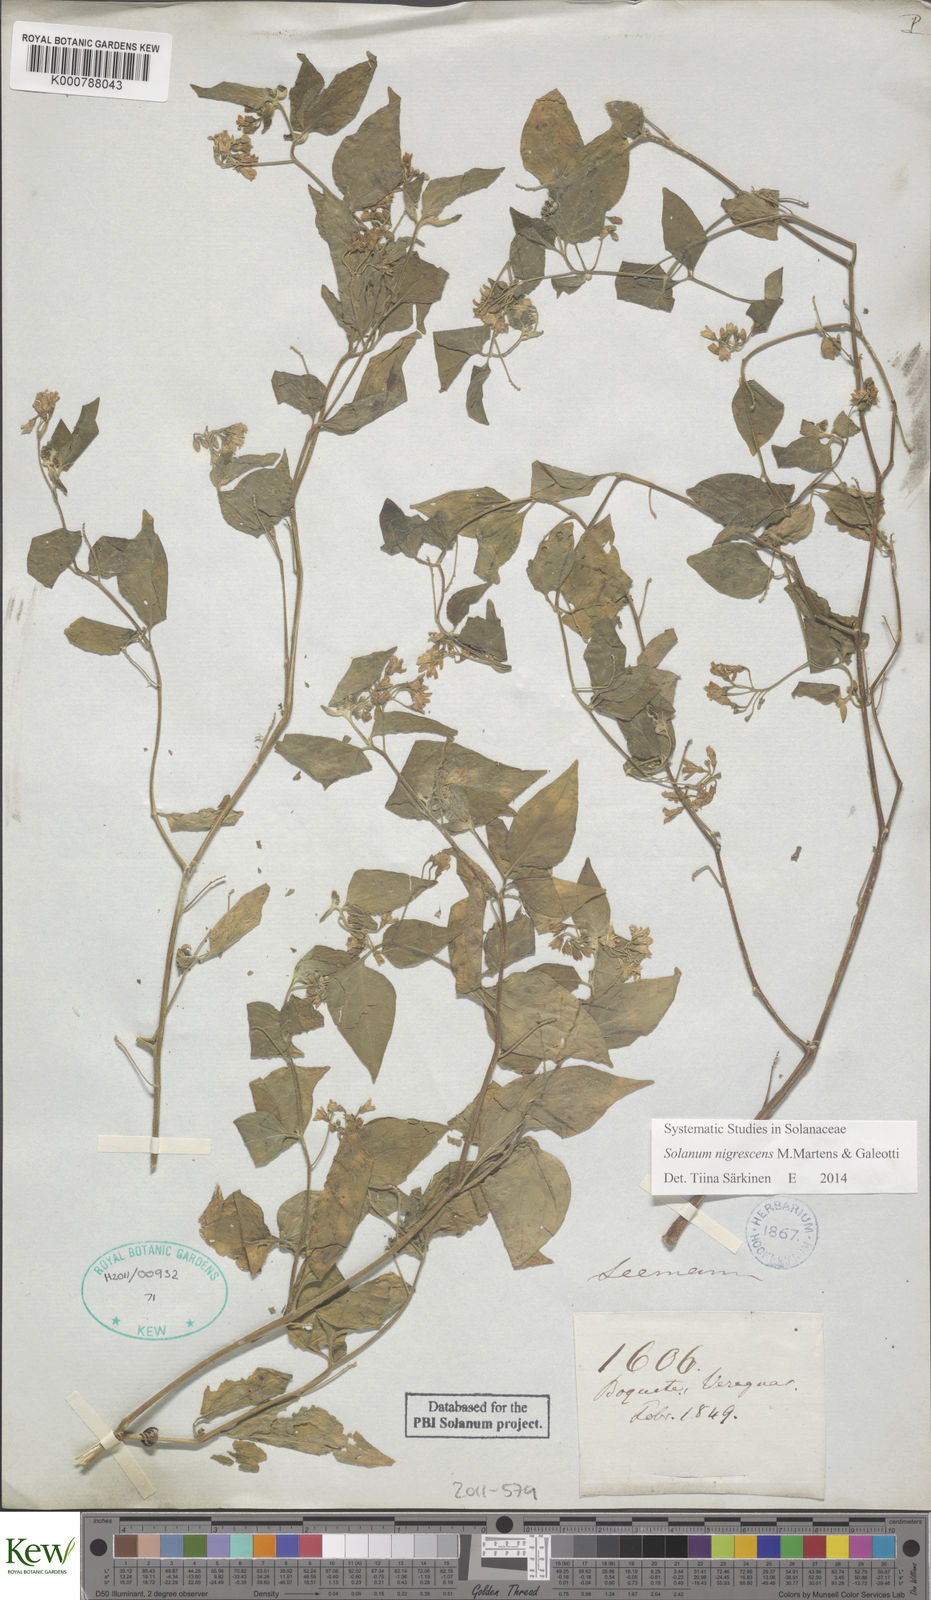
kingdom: Plantae
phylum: Tracheophyta
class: Magnoliopsida
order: Solanales
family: Solanaceae
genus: Solanum
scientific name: Solanum nigrescens
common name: Divine nightshade
